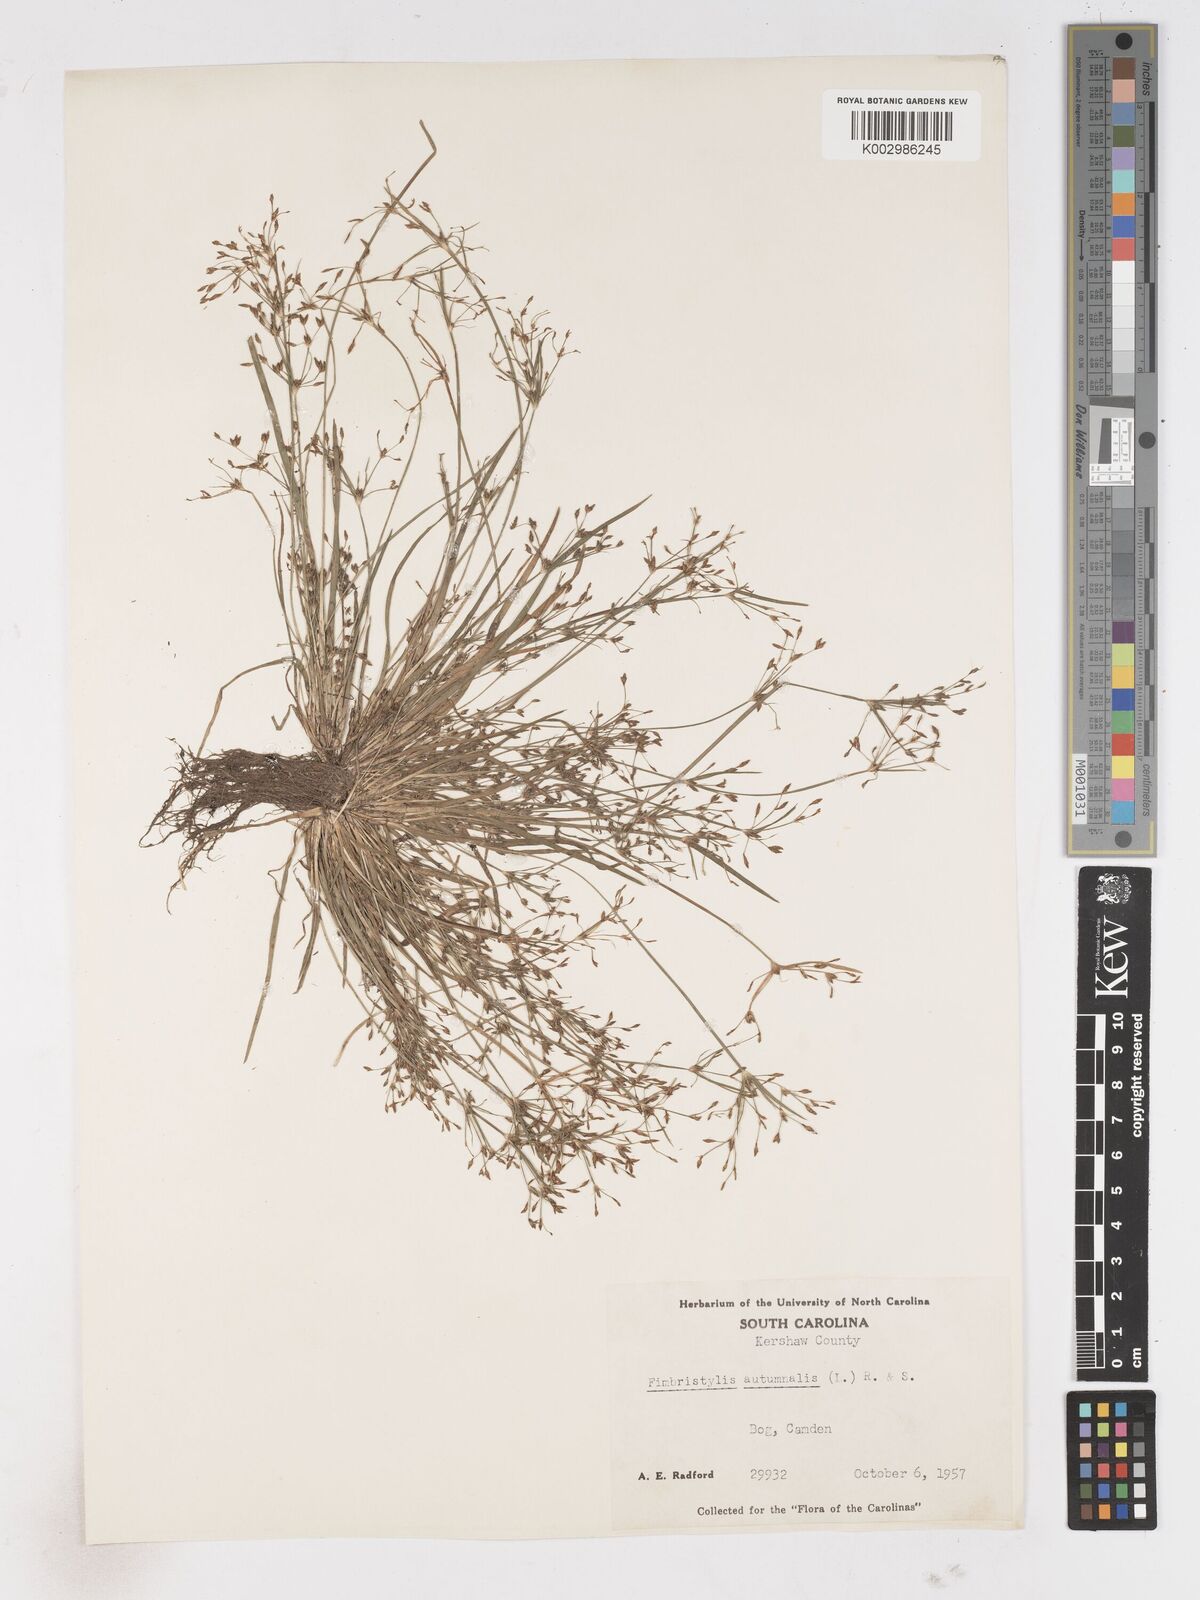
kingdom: Plantae
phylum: Tracheophyta
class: Liliopsida
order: Poales
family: Cyperaceae
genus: Fimbristylis
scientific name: Fimbristylis autumnalis
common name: Slender fimbristylis
